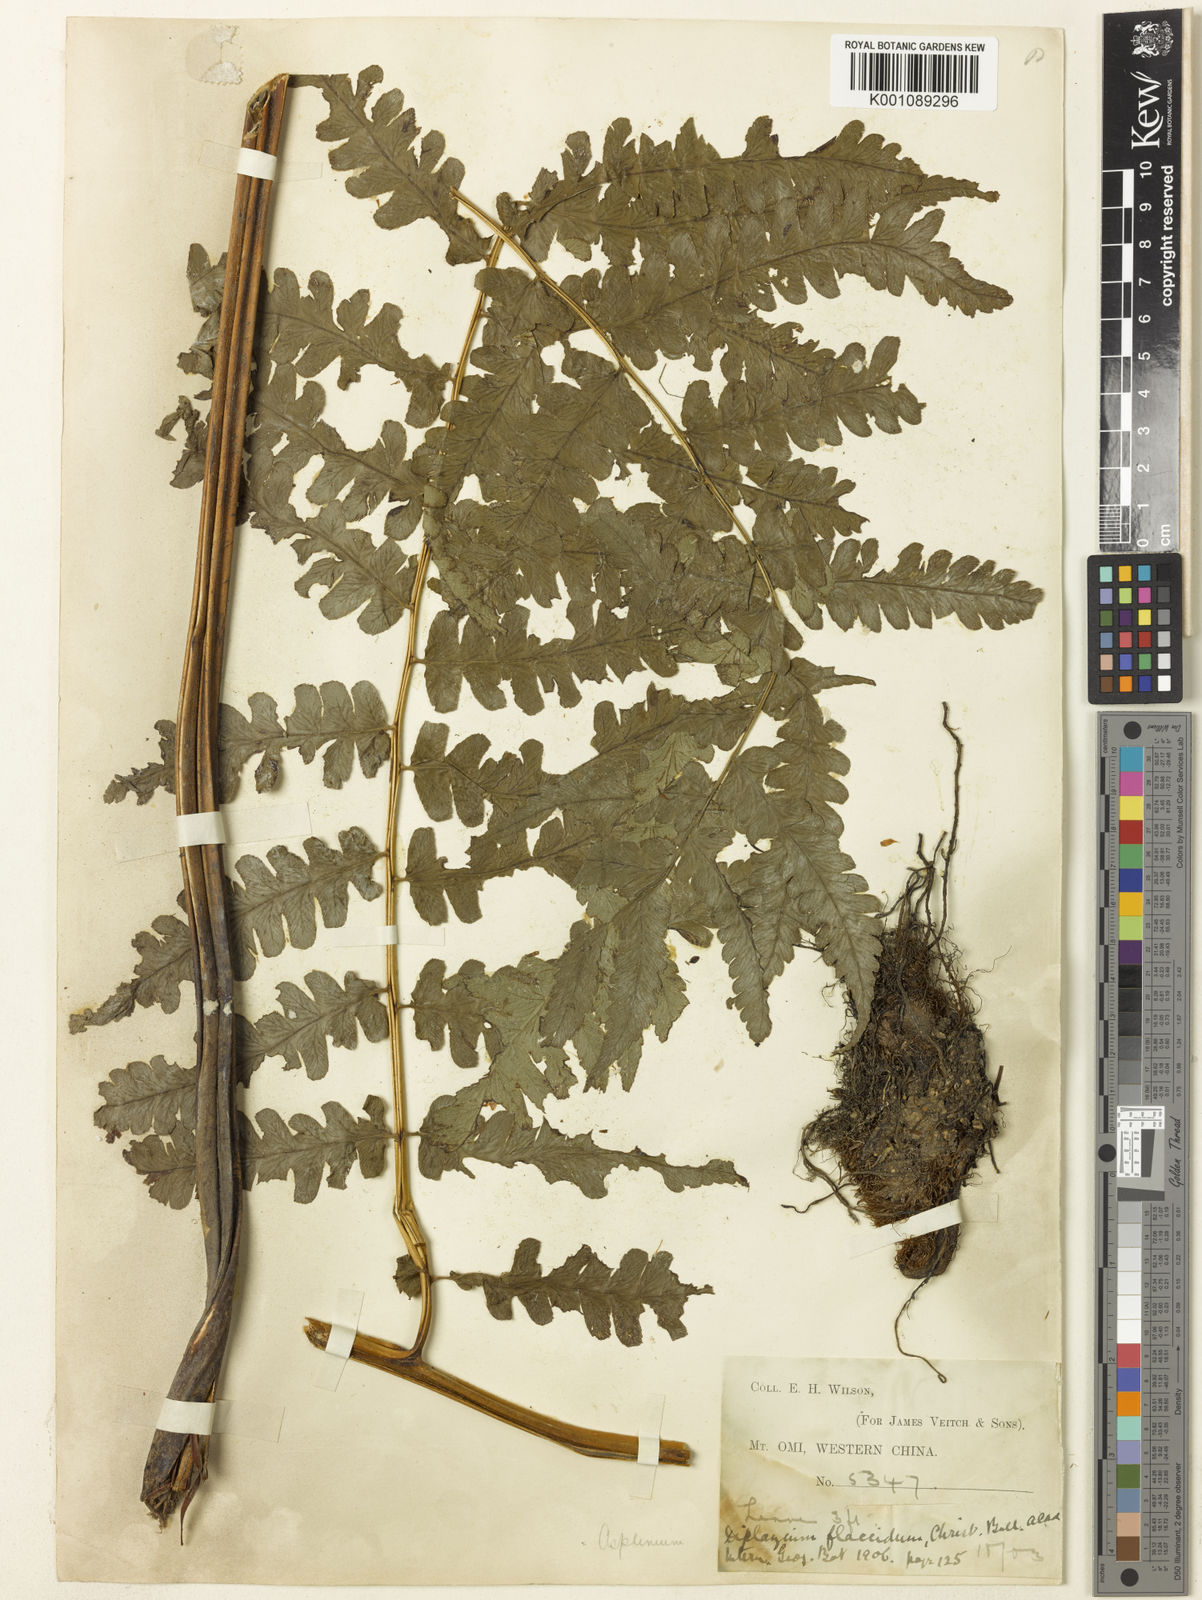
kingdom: Plantae
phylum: Tracheophyta
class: Polypodiopsida
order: Polypodiales
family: Athyriaceae
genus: Diplazium
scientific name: Diplazium maximum
